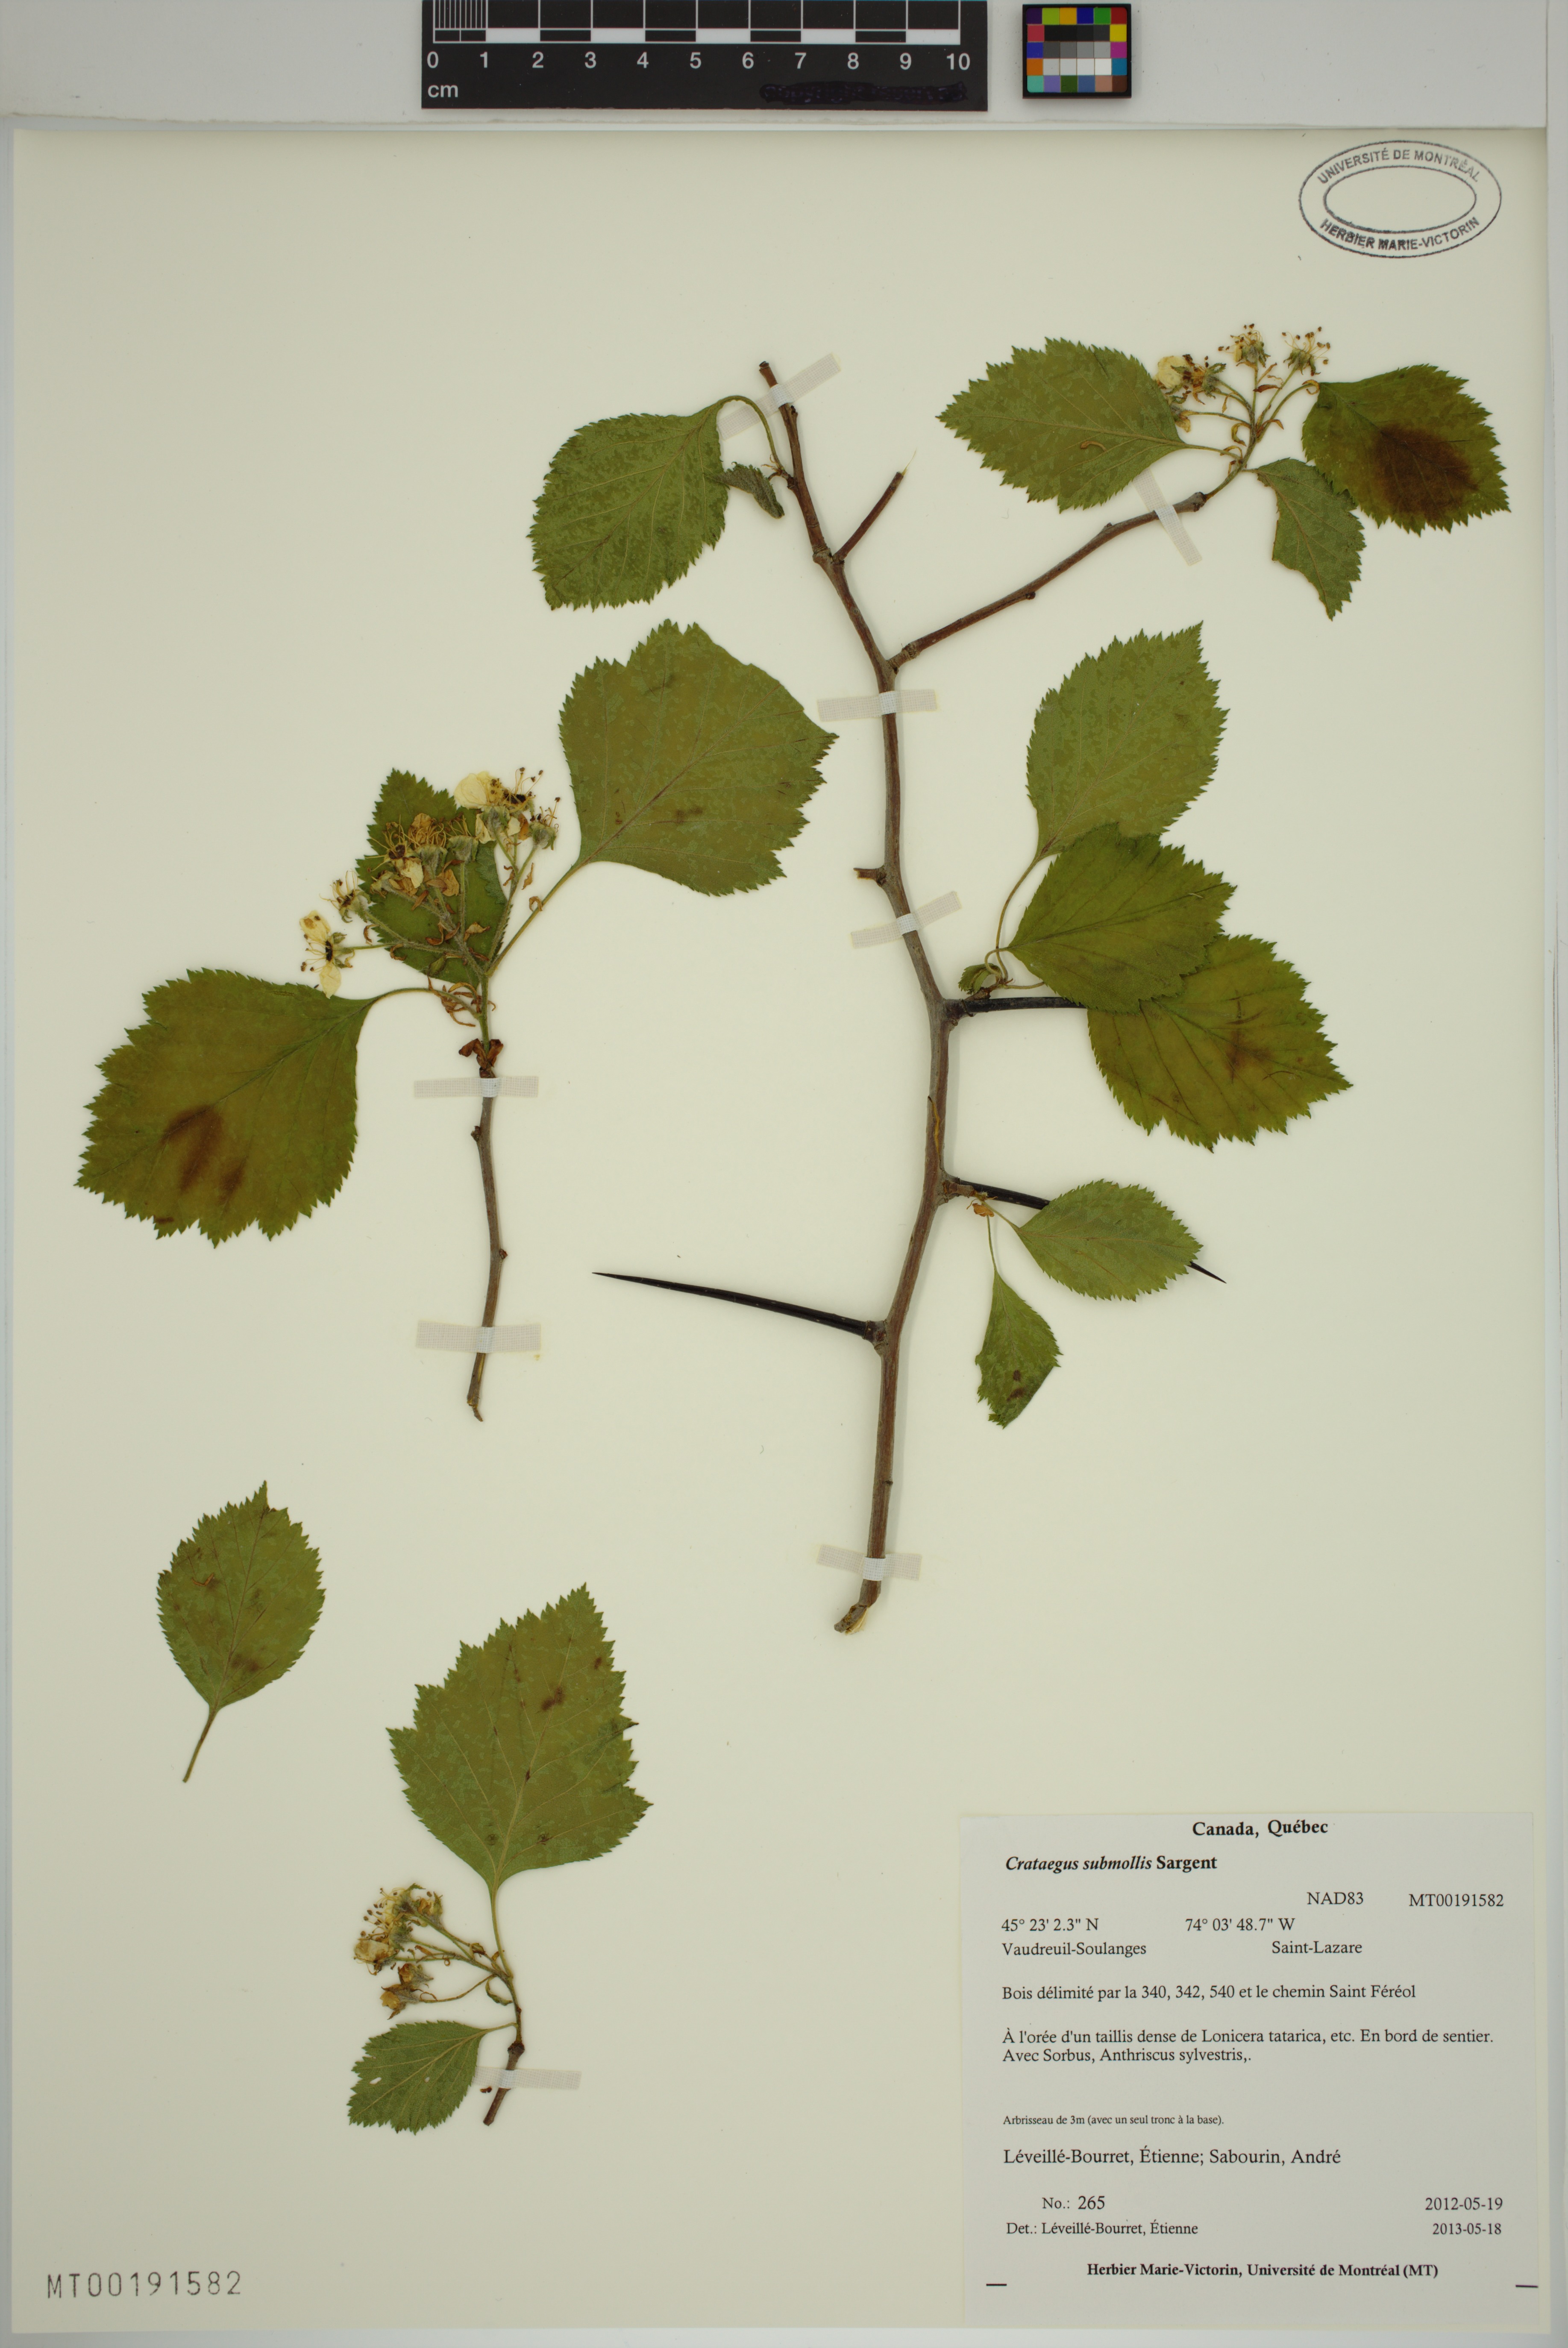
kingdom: Plantae
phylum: Tracheophyta
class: Magnoliopsida
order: Rosales
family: Rosaceae
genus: Crataegus
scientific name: Crataegus submollis
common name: Hairy cockspurthorn
